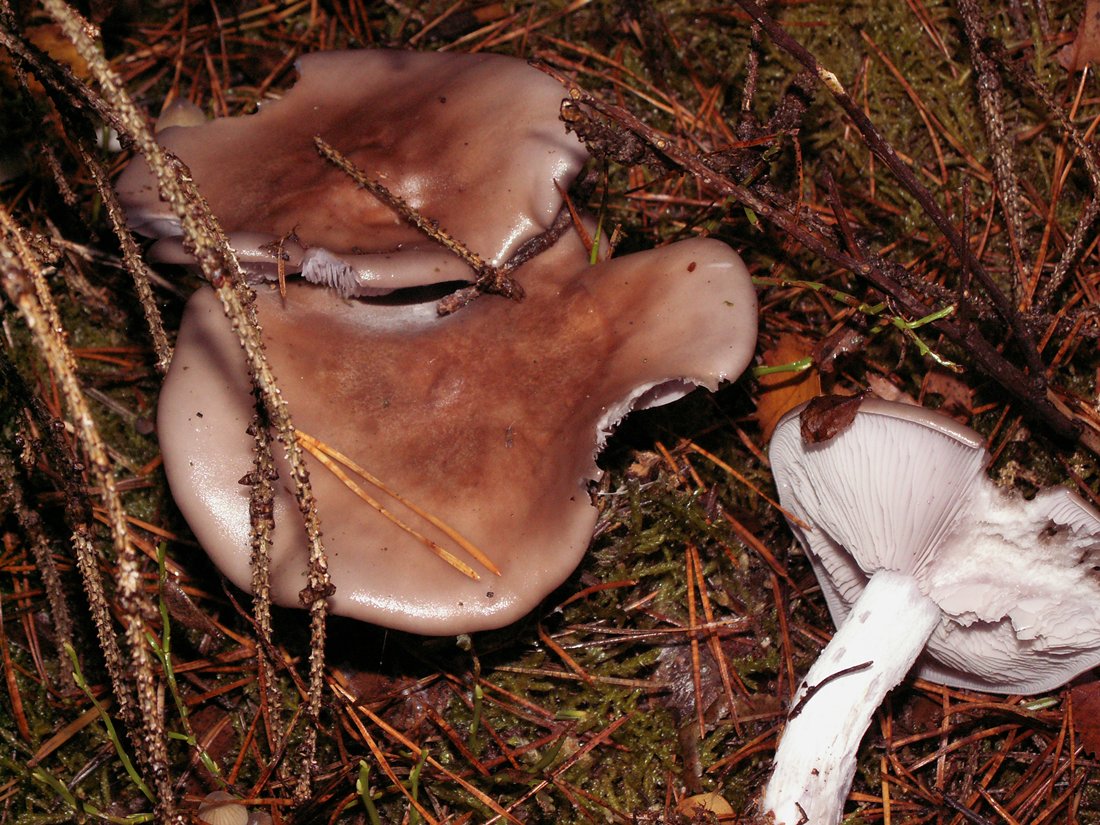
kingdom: Fungi
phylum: Basidiomycota
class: Agaricomycetes
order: Agaricales
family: Tricholomataceae
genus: Lepista
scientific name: Lepista nuda
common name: violet hekseringshat
